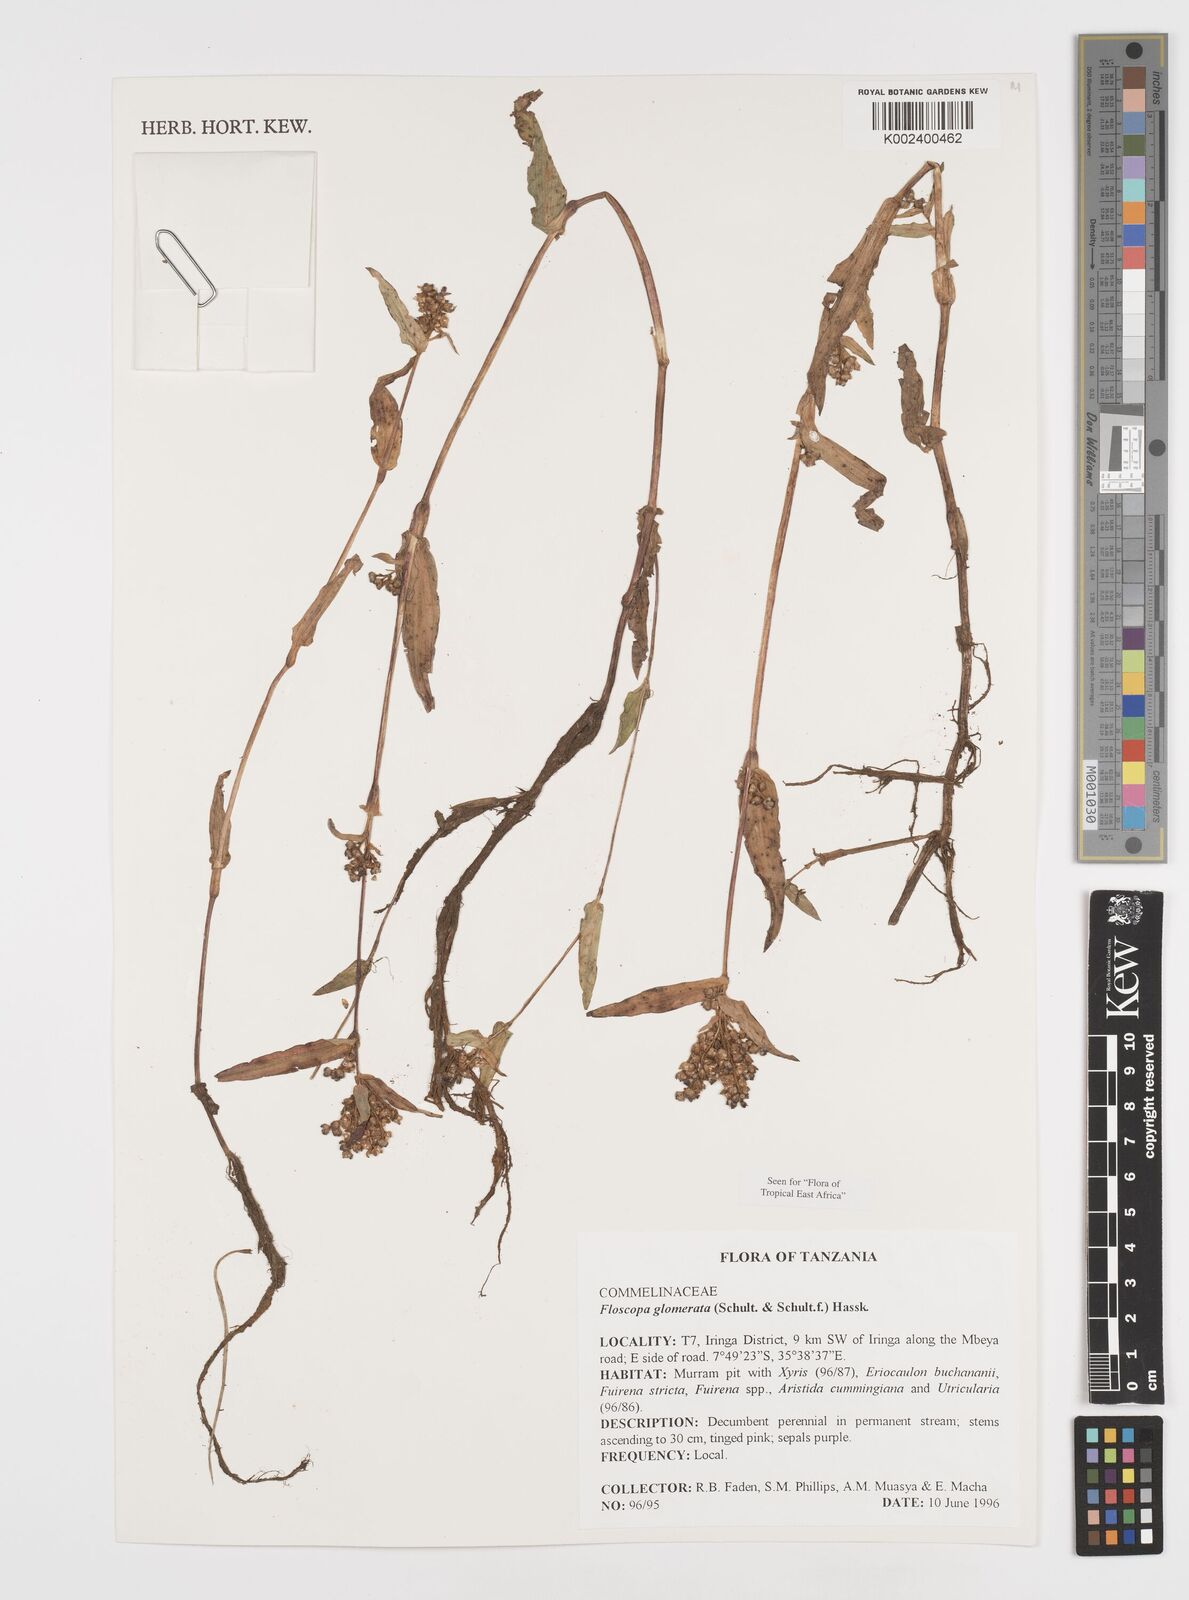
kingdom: Plantae
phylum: Tracheophyta
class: Liliopsida
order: Commelinales
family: Commelinaceae
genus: Floscopa
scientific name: Floscopa glomerata
